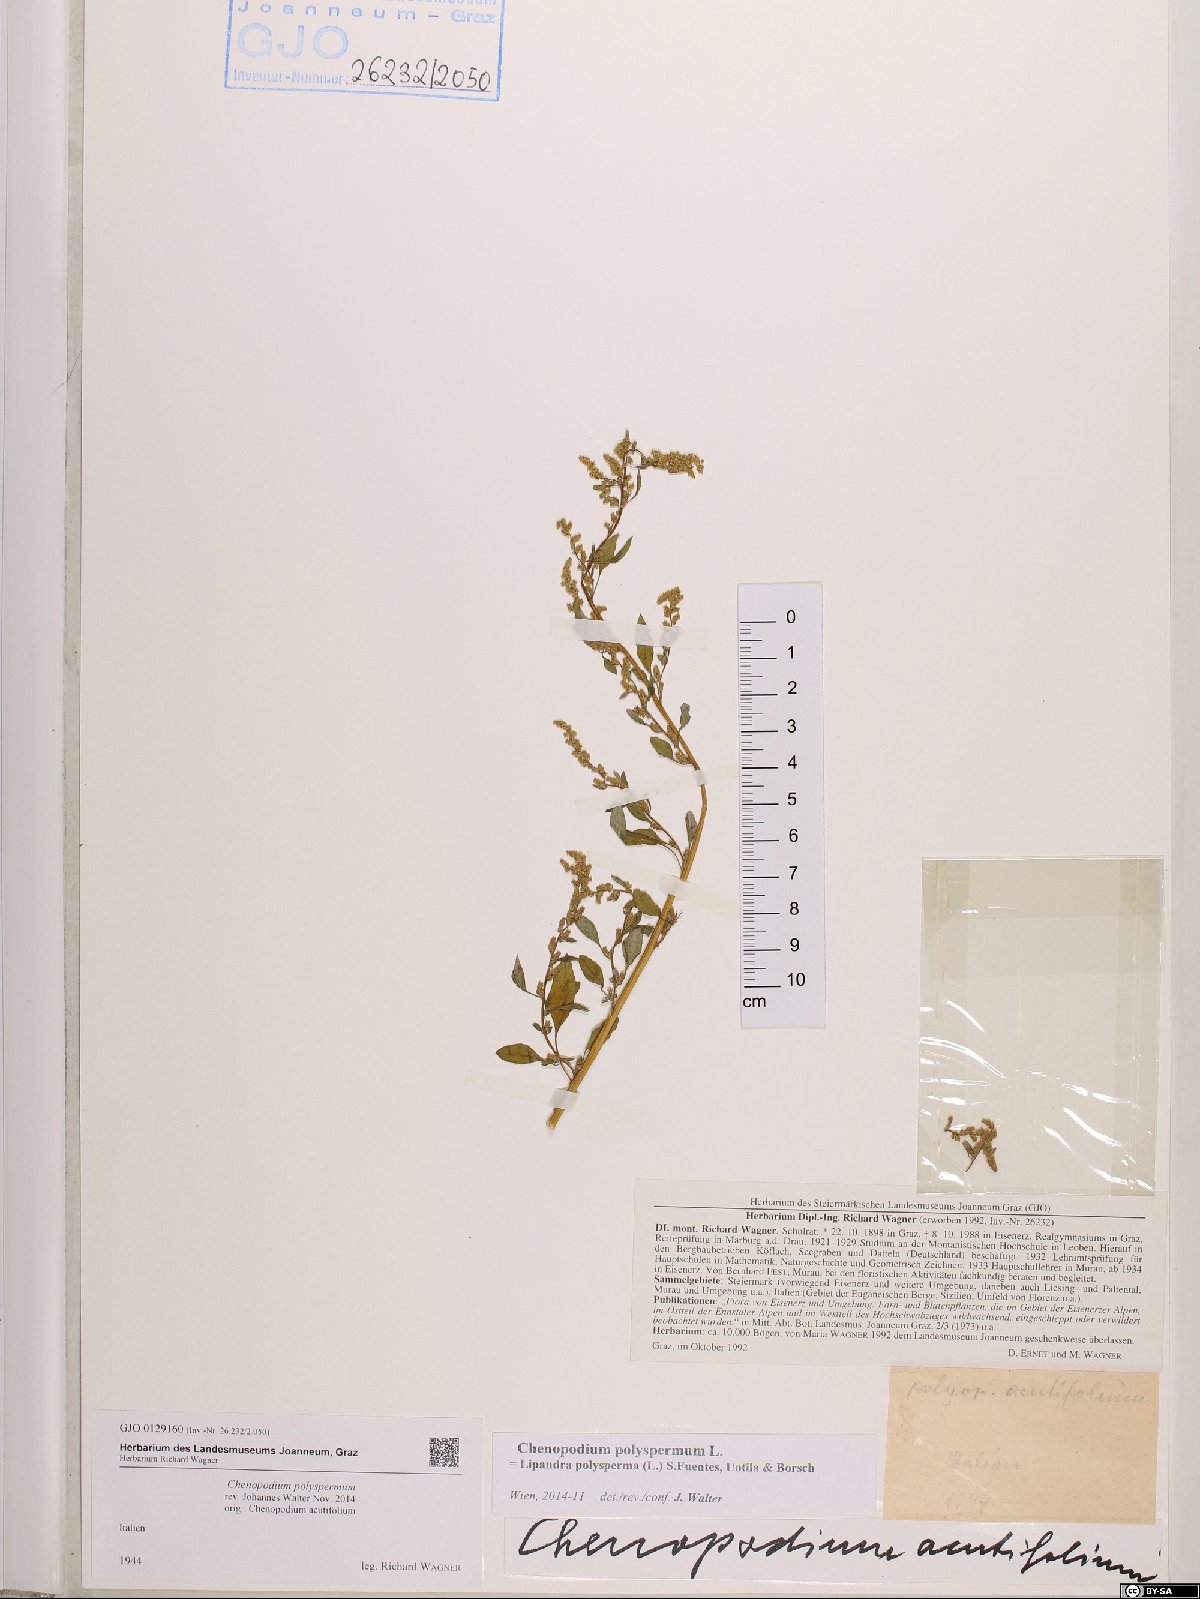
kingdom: Plantae
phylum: Tracheophyta
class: Magnoliopsida
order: Caryophyllales
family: Amaranthaceae
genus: Lipandra
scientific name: Lipandra polysperma
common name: Many-seed goosefoot
